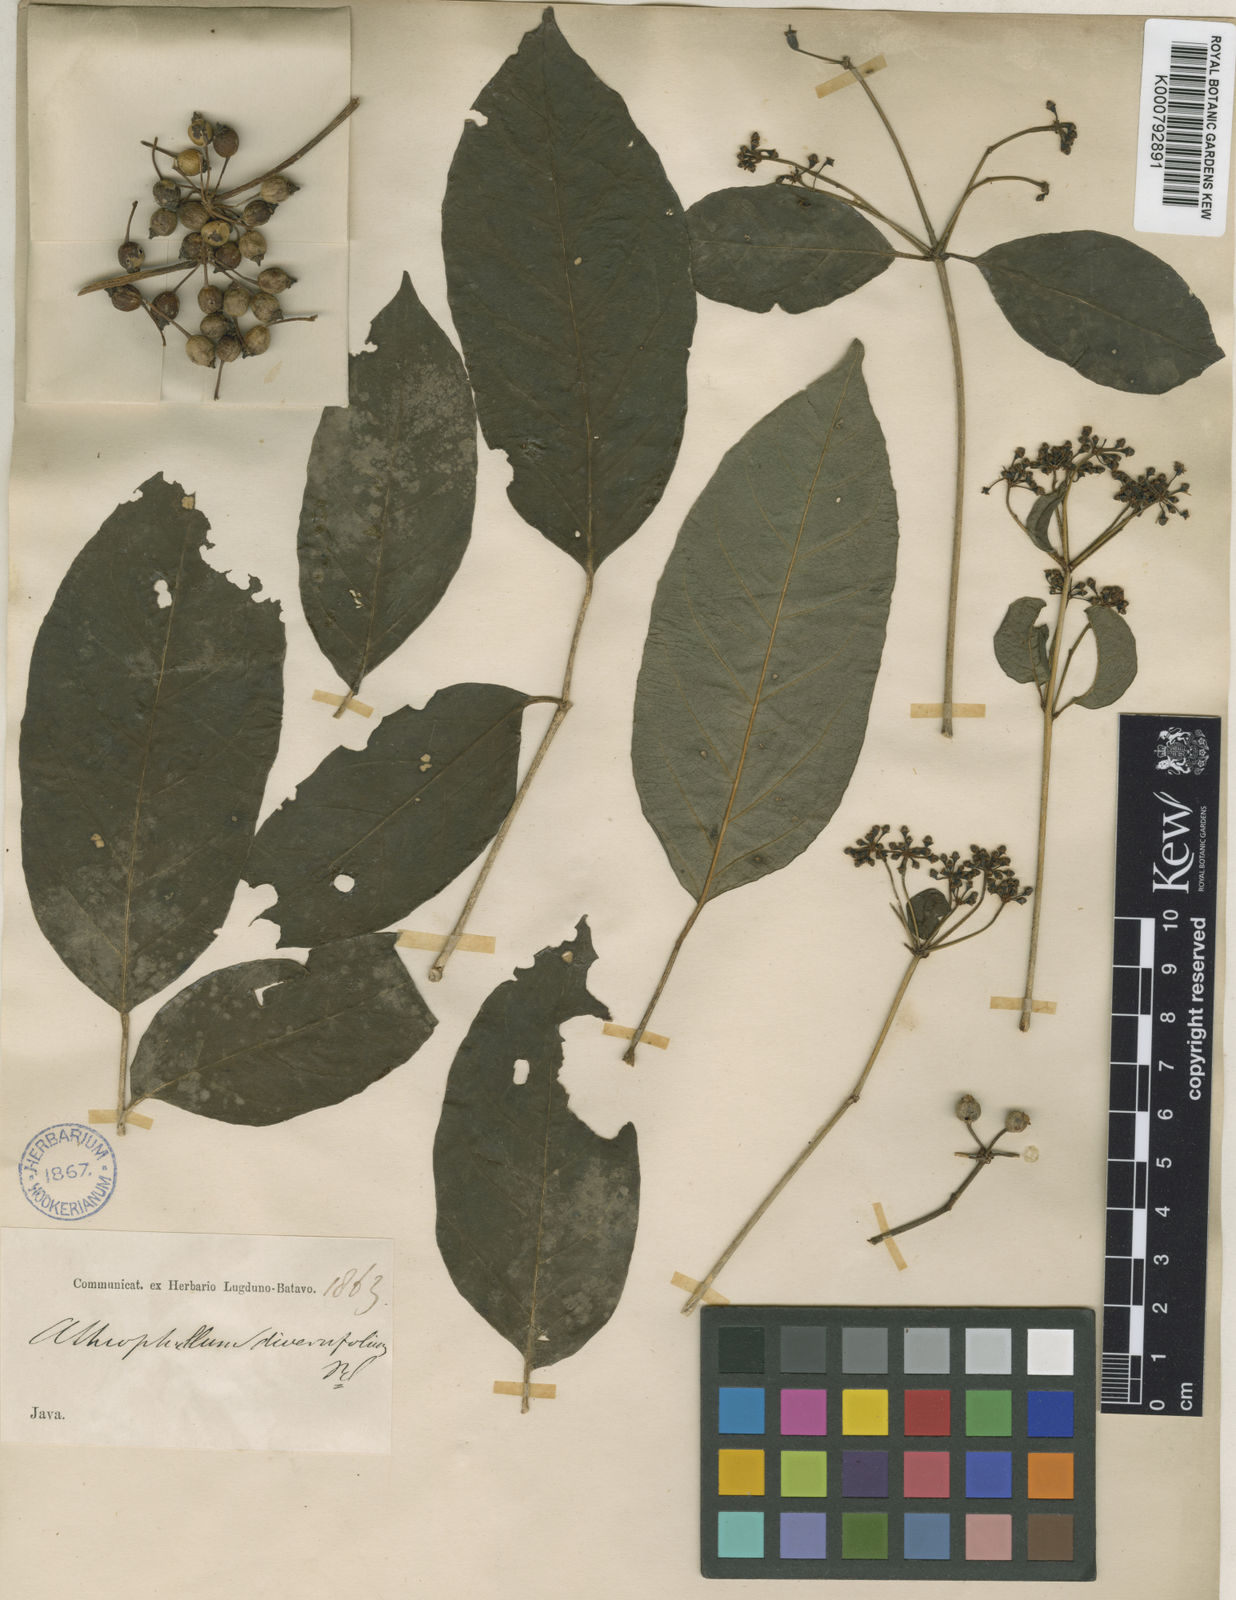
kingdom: Plantae
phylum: Tracheophyta
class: Magnoliopsida
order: Apiales
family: Araliaceae
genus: Polyscias
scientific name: Polyscias diversifolia
